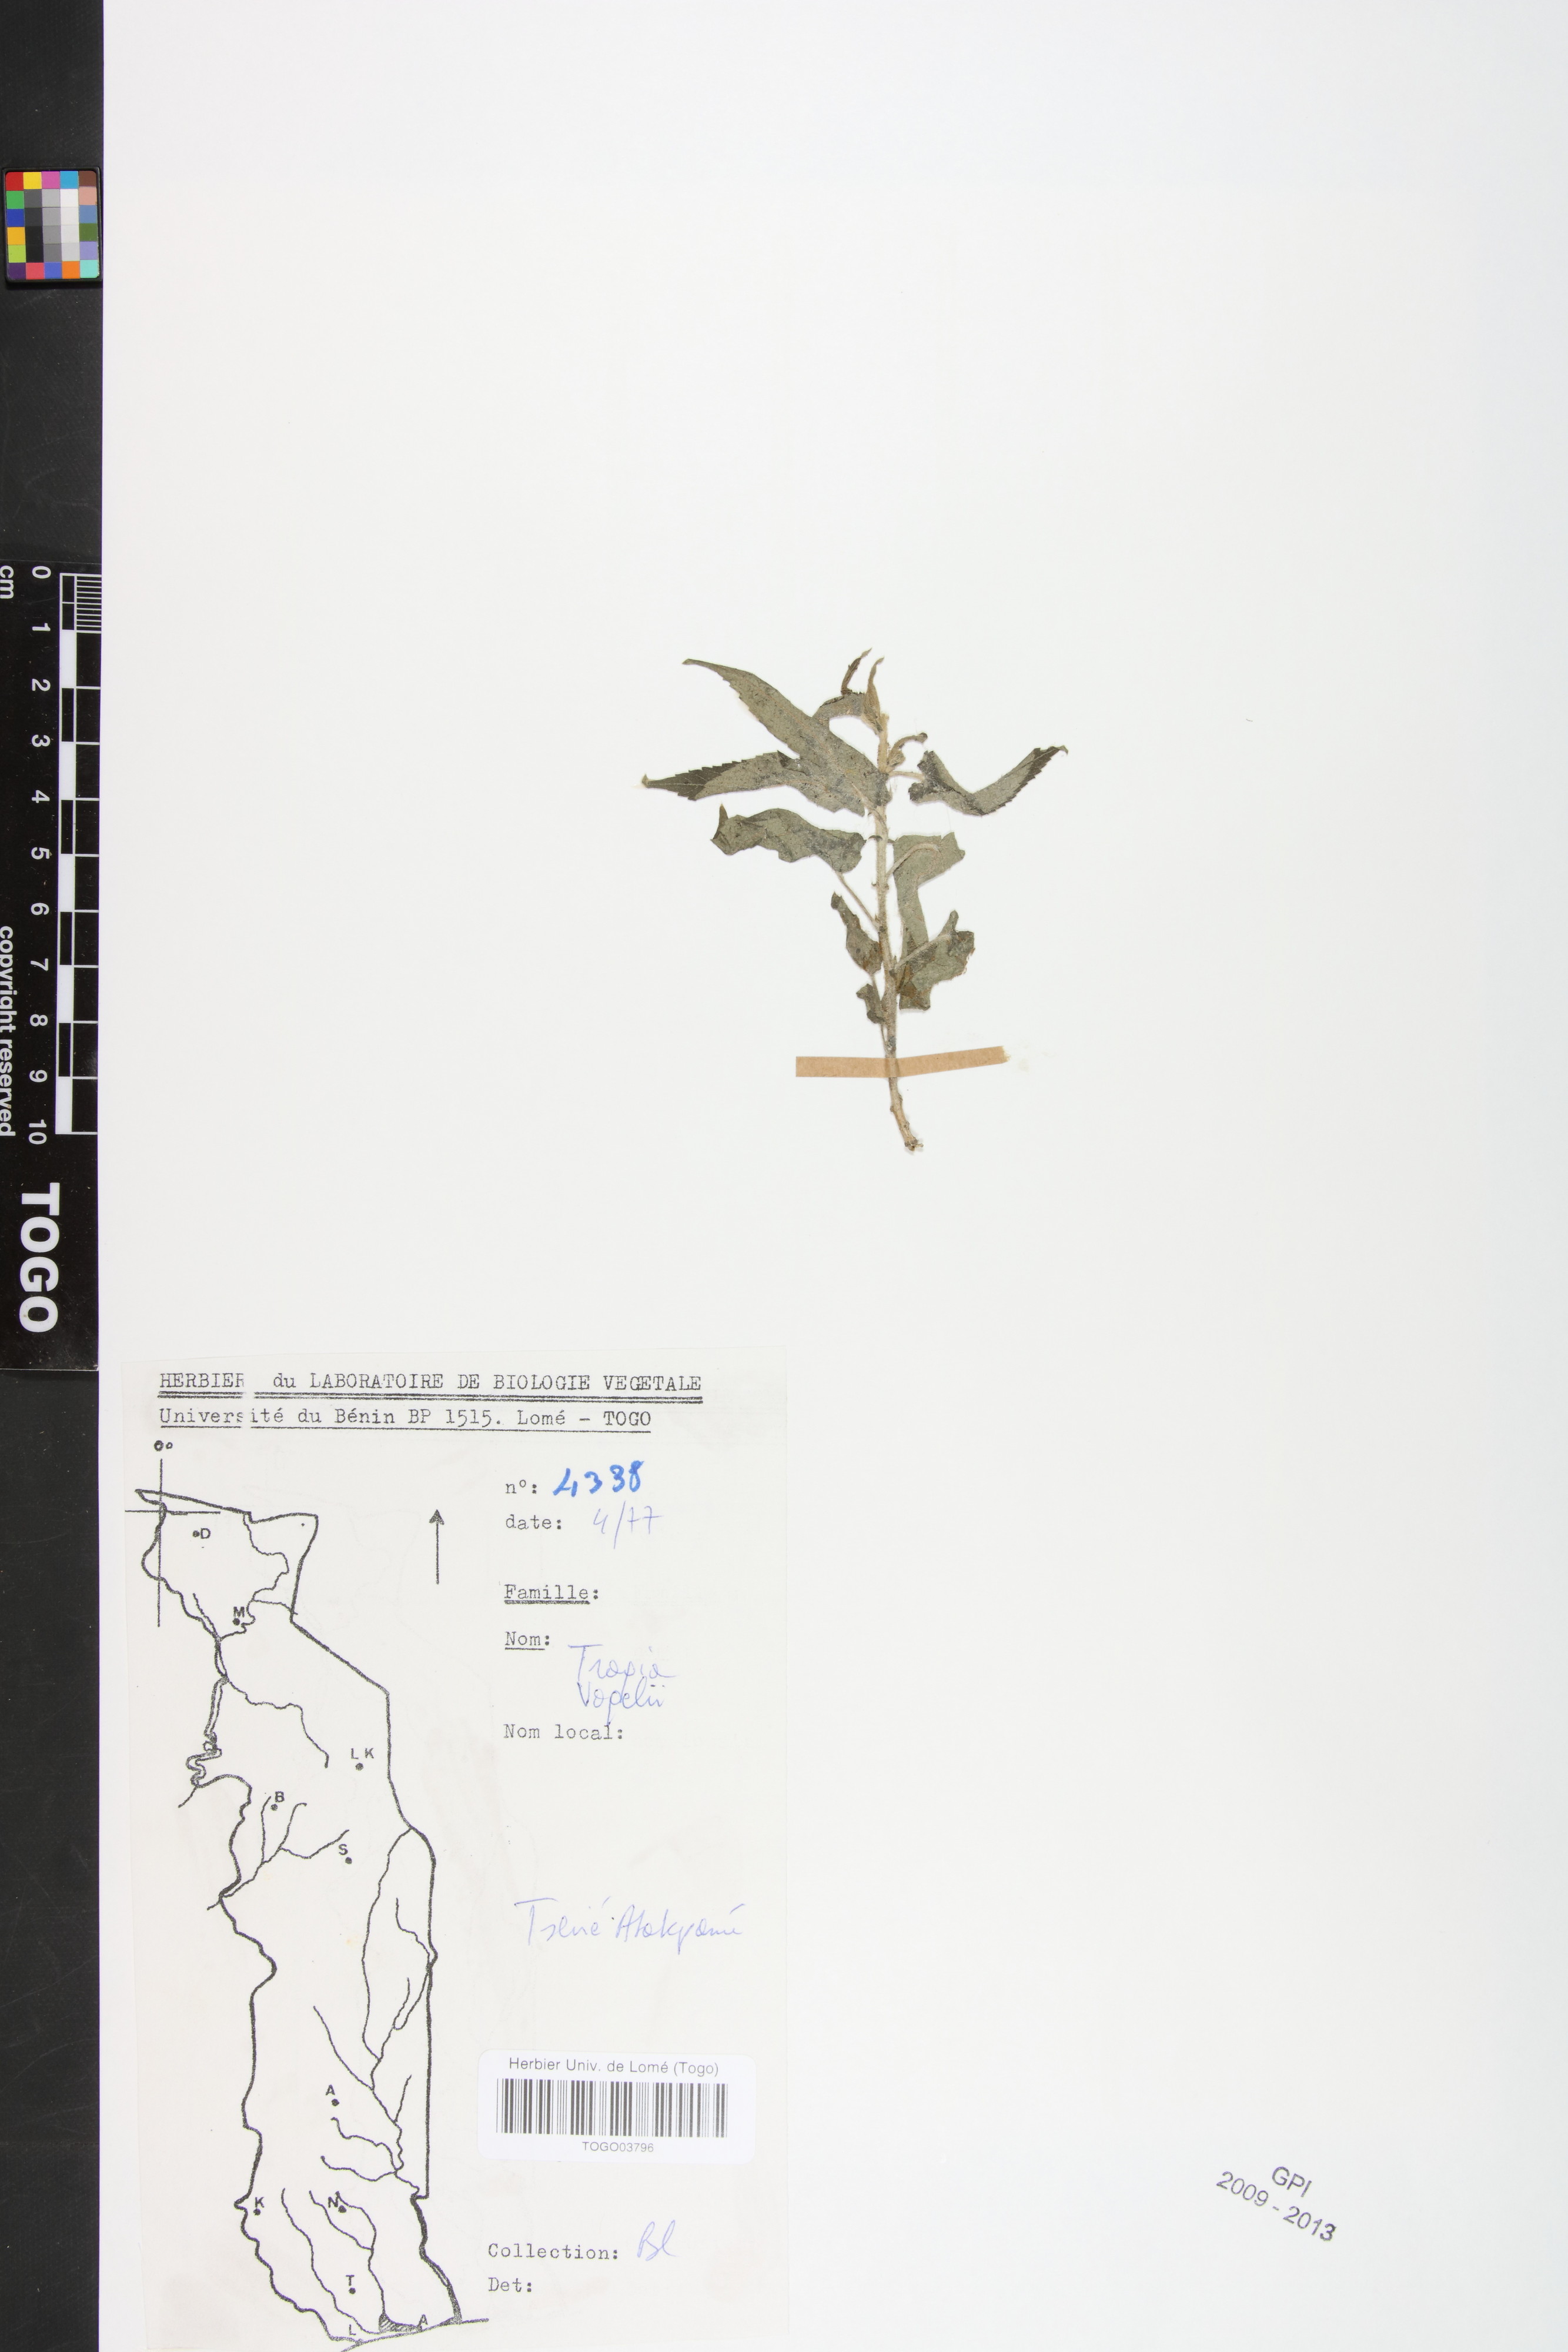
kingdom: Plantae
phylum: Tracheophyta
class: Magnoliopsida
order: Malpighiales
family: Euphorbiaceae
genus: Tragia
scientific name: Tragia vogelii
